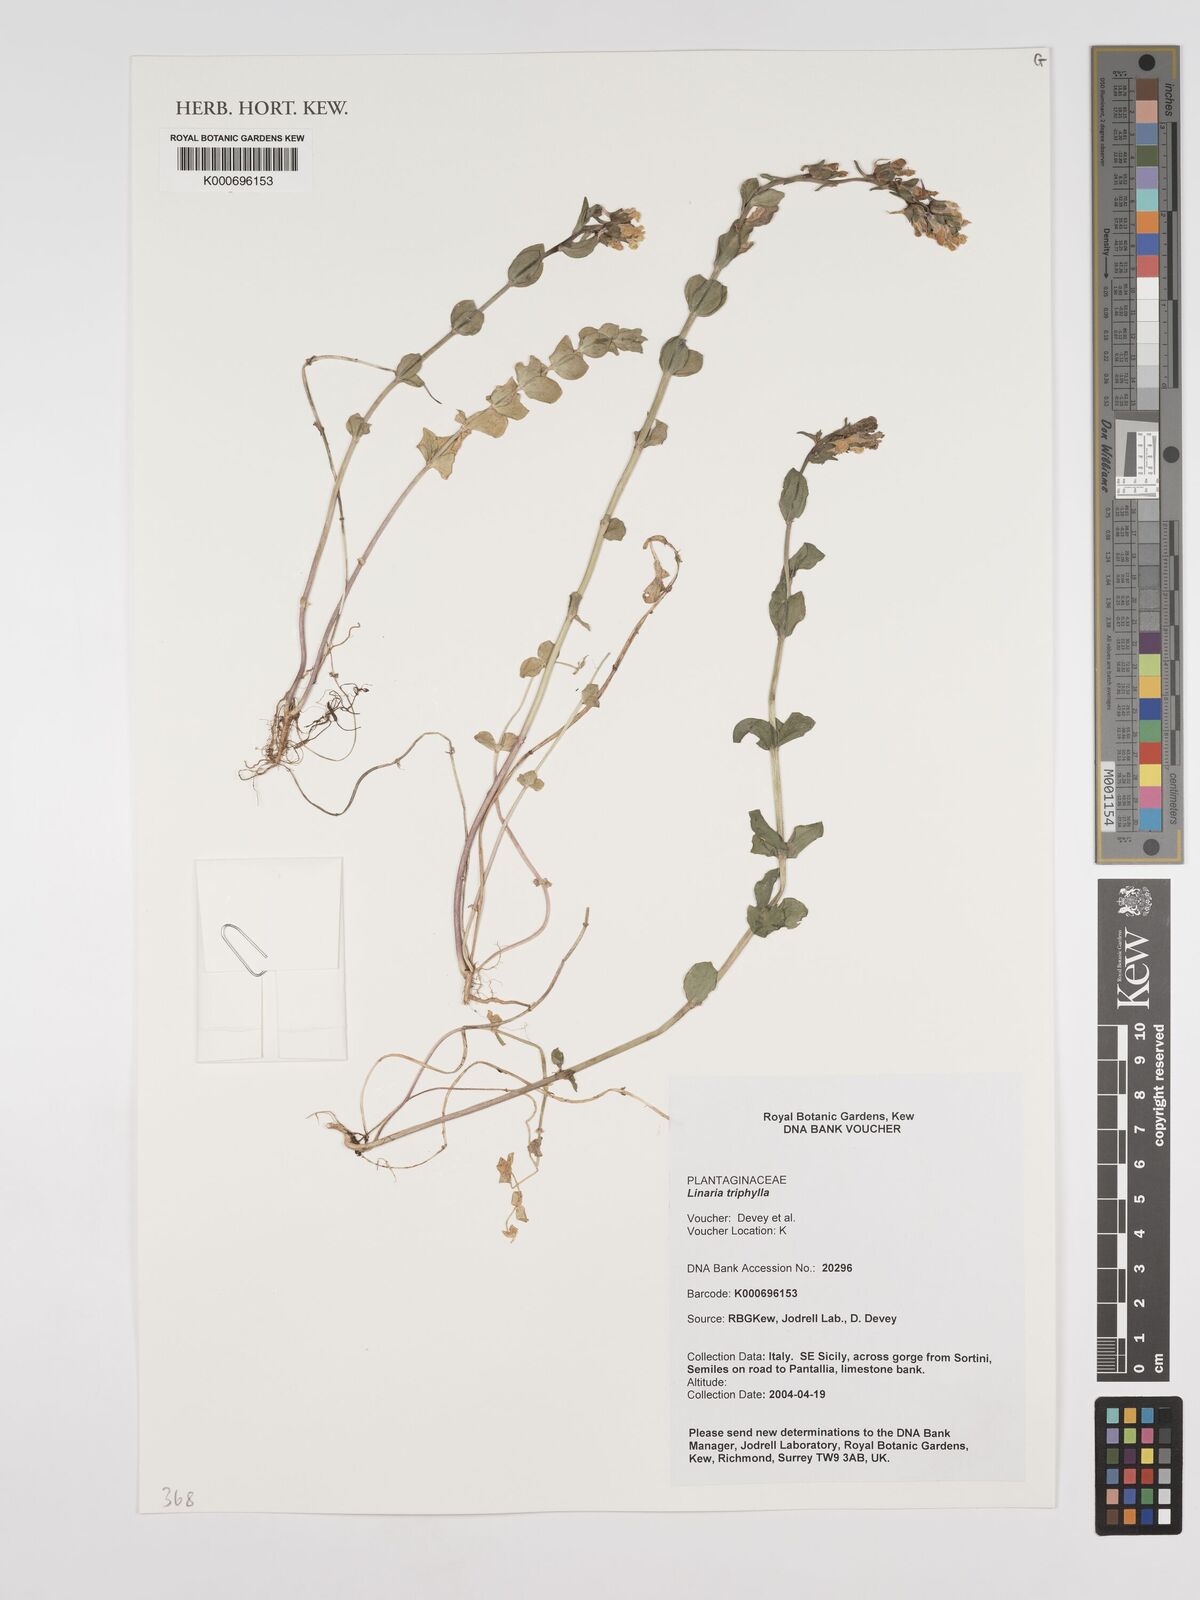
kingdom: Plantae
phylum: Tracheophyta
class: Magnoliopsida
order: Lamiales
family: Plantaginaceae
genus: Linaria
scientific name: Linaria triphylla
